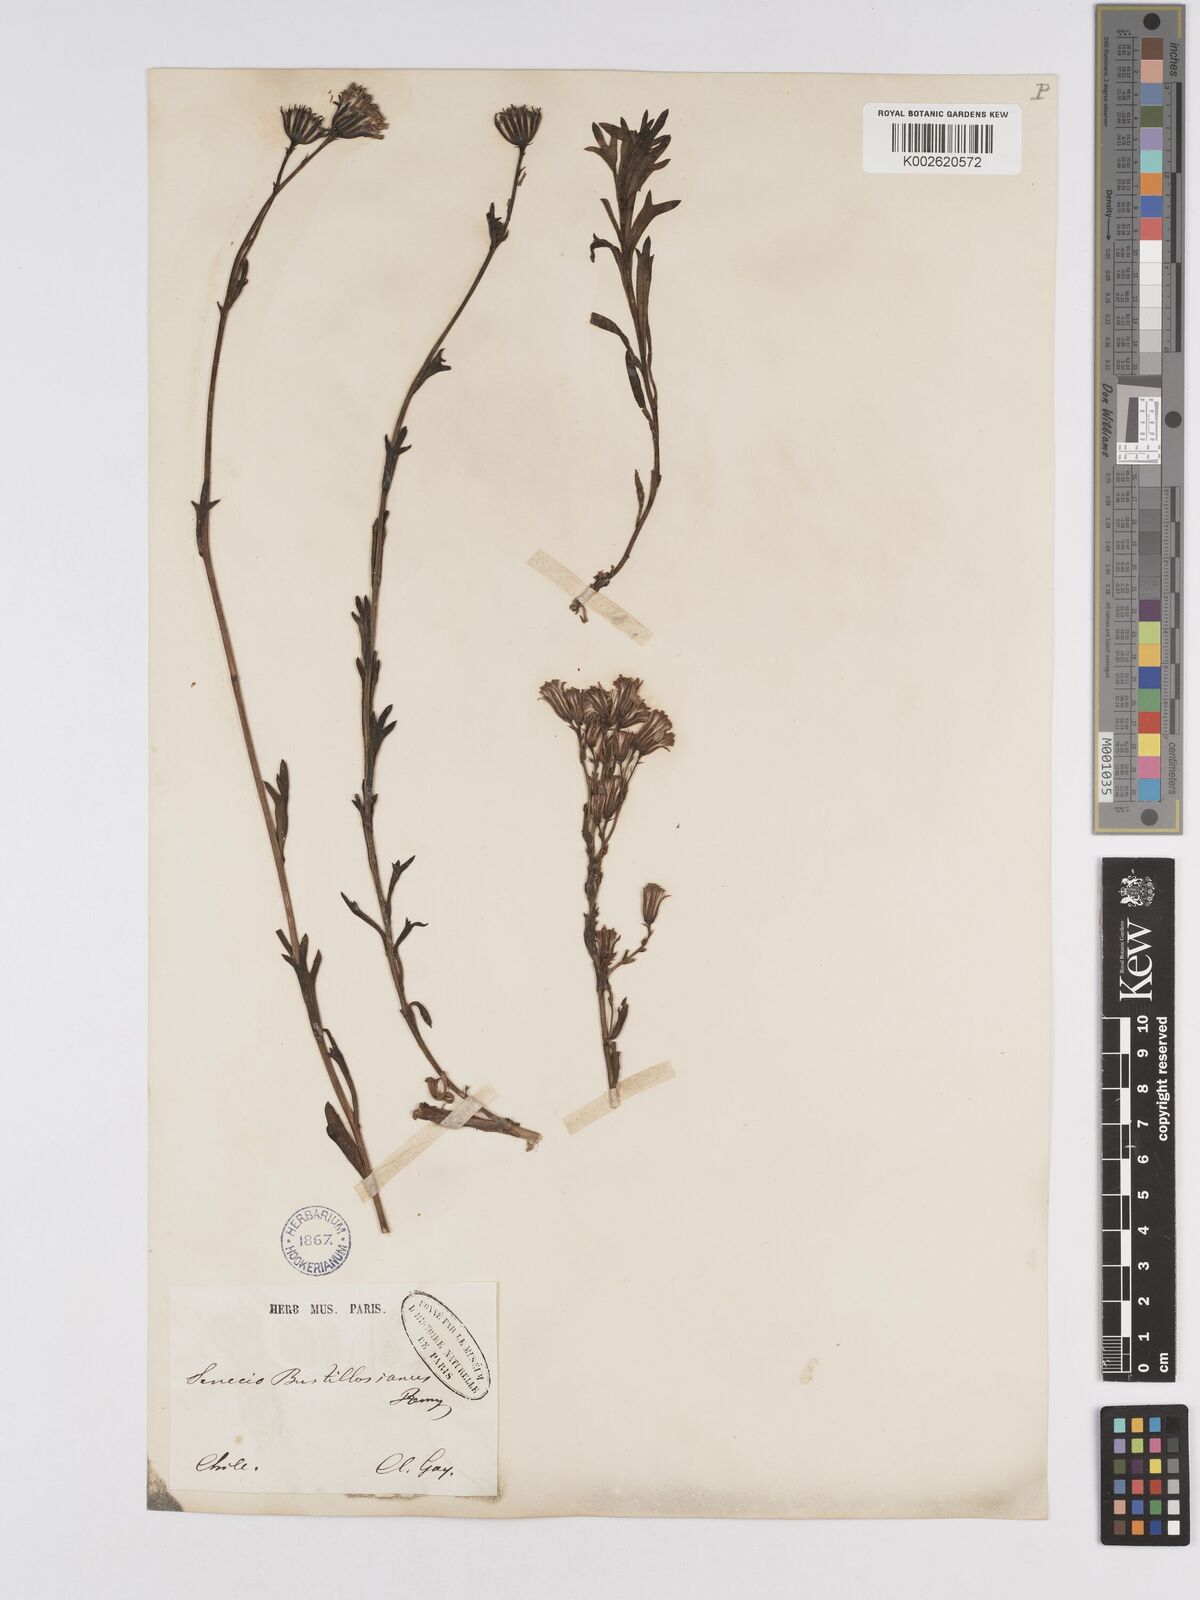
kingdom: Plantae
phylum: Tracheophyta
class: Magnoliopsida
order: Asterales
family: Asteraceae
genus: Senecio
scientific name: Senecio bustillosianus
